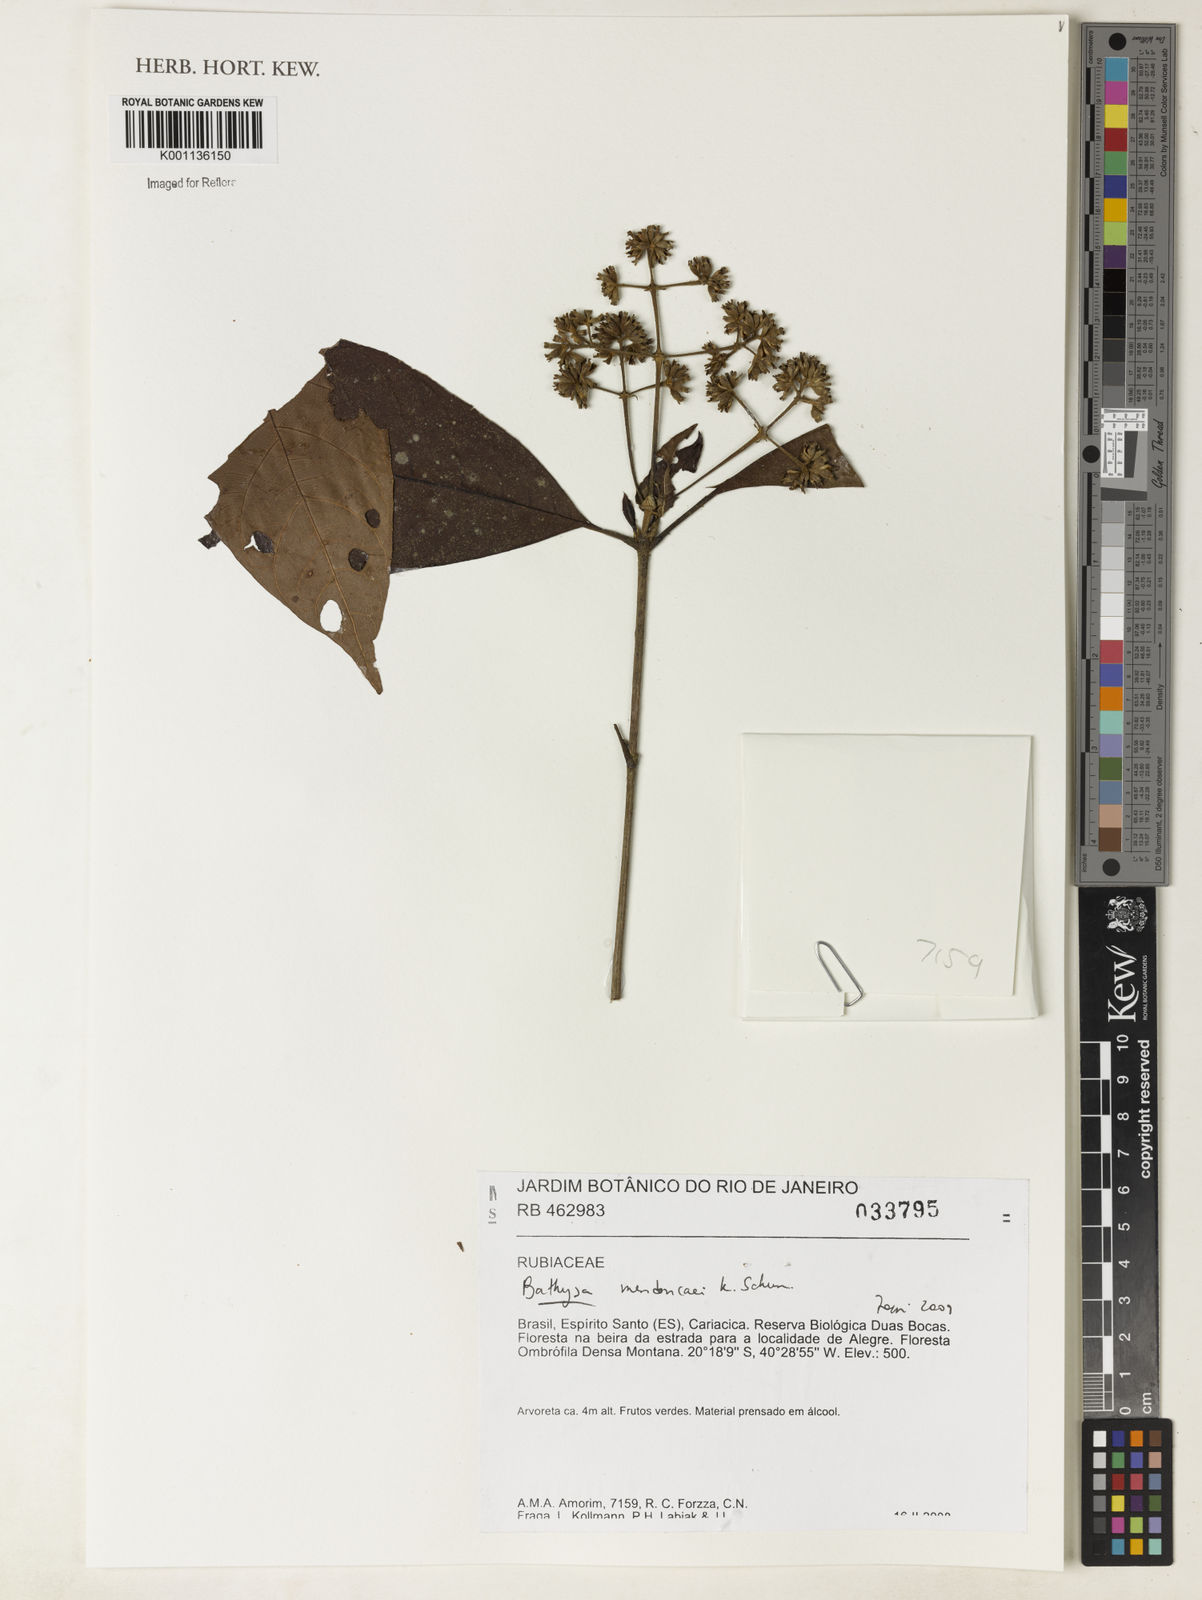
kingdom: Plantae
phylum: Tracheophyta
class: Magnoliopsida
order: Gentianales
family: Rubiaceae
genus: Bathysa
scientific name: Bathysa
